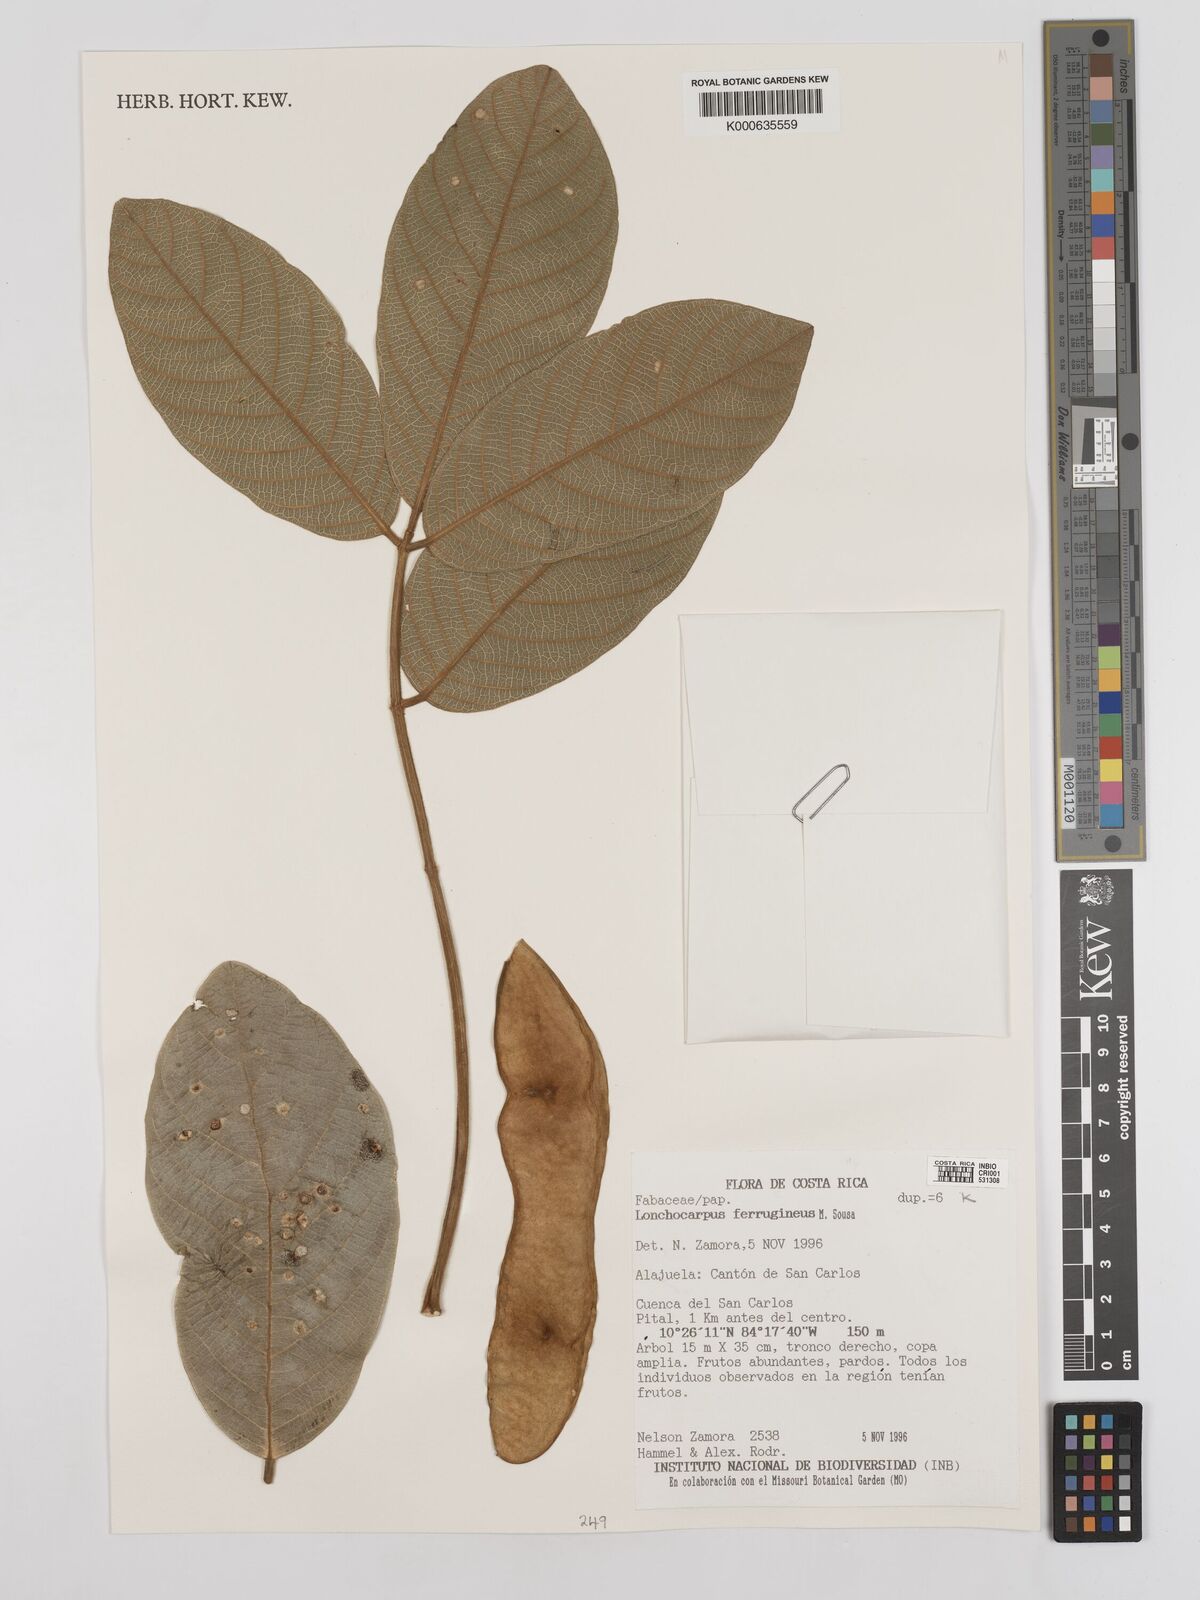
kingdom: Plantae
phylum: Tracheophyta
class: Magnoliopsida
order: Fabales
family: Fabaceae
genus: Lonchocarpus
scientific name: Lonchocarpus ferrugineus
